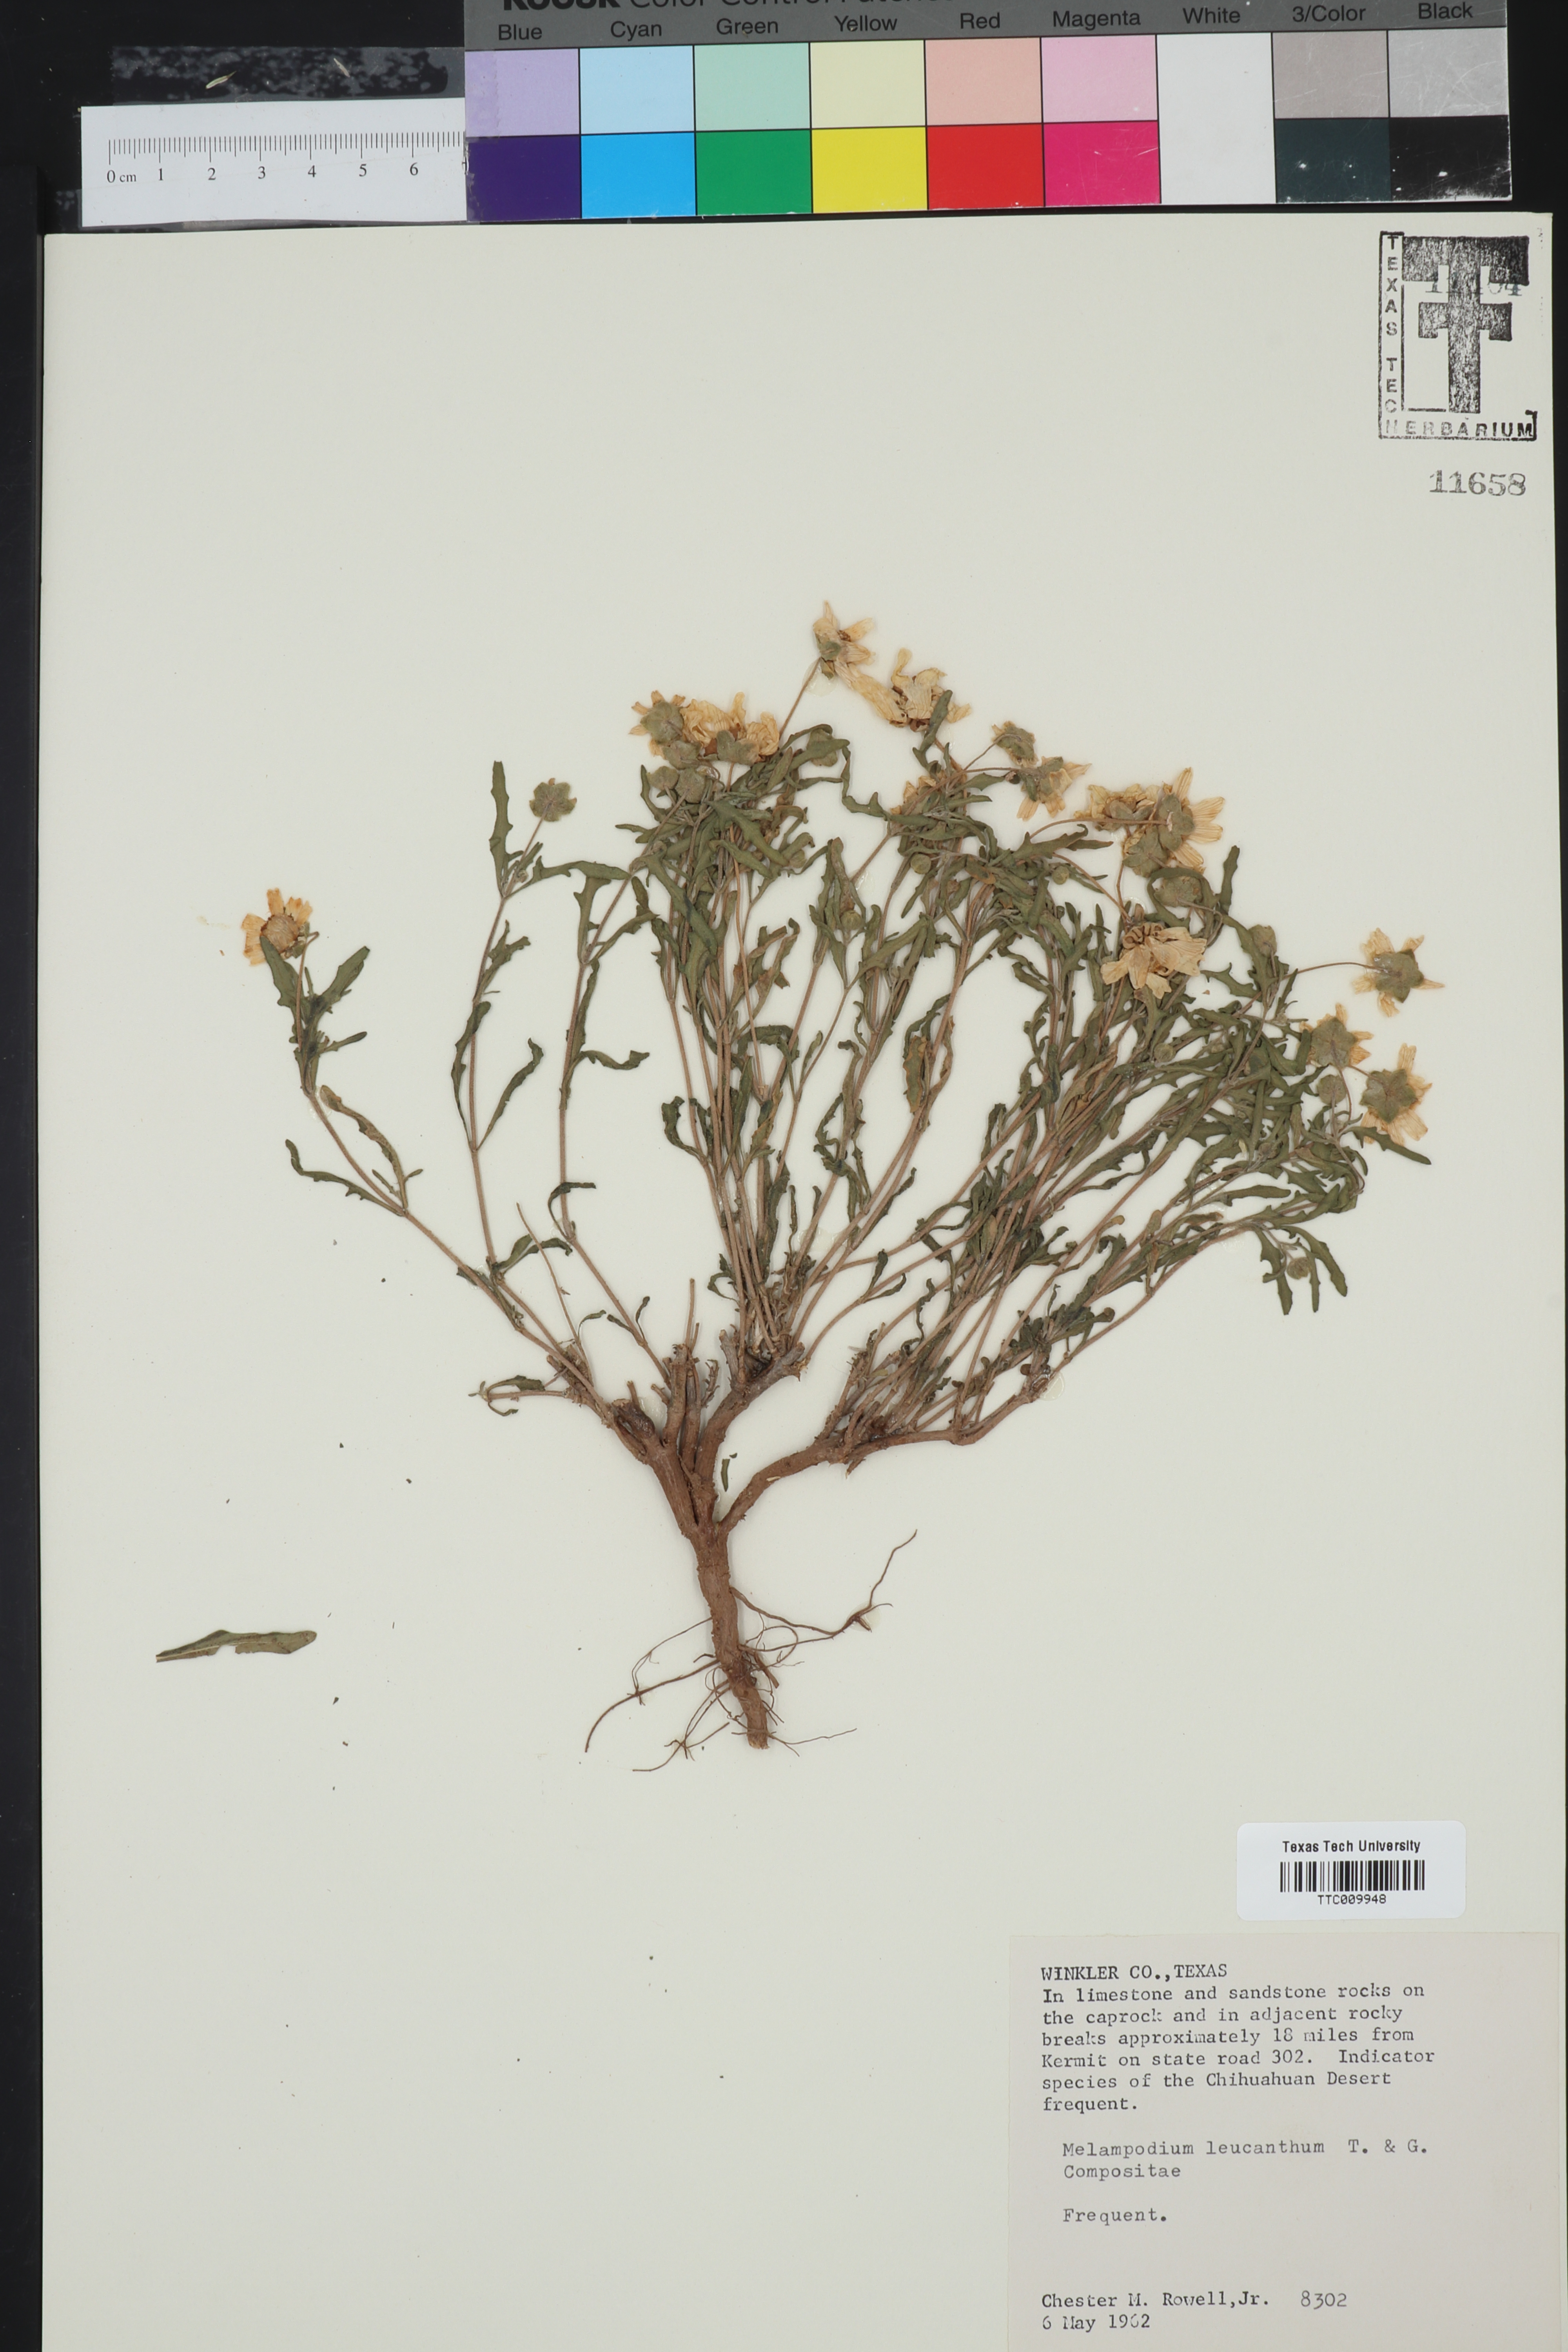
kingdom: Plantae
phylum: Tracheophyta
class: Magnoliopsida
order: Asterales
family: Asteraceae
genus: Melampodium
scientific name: Melampodium leucanthum
